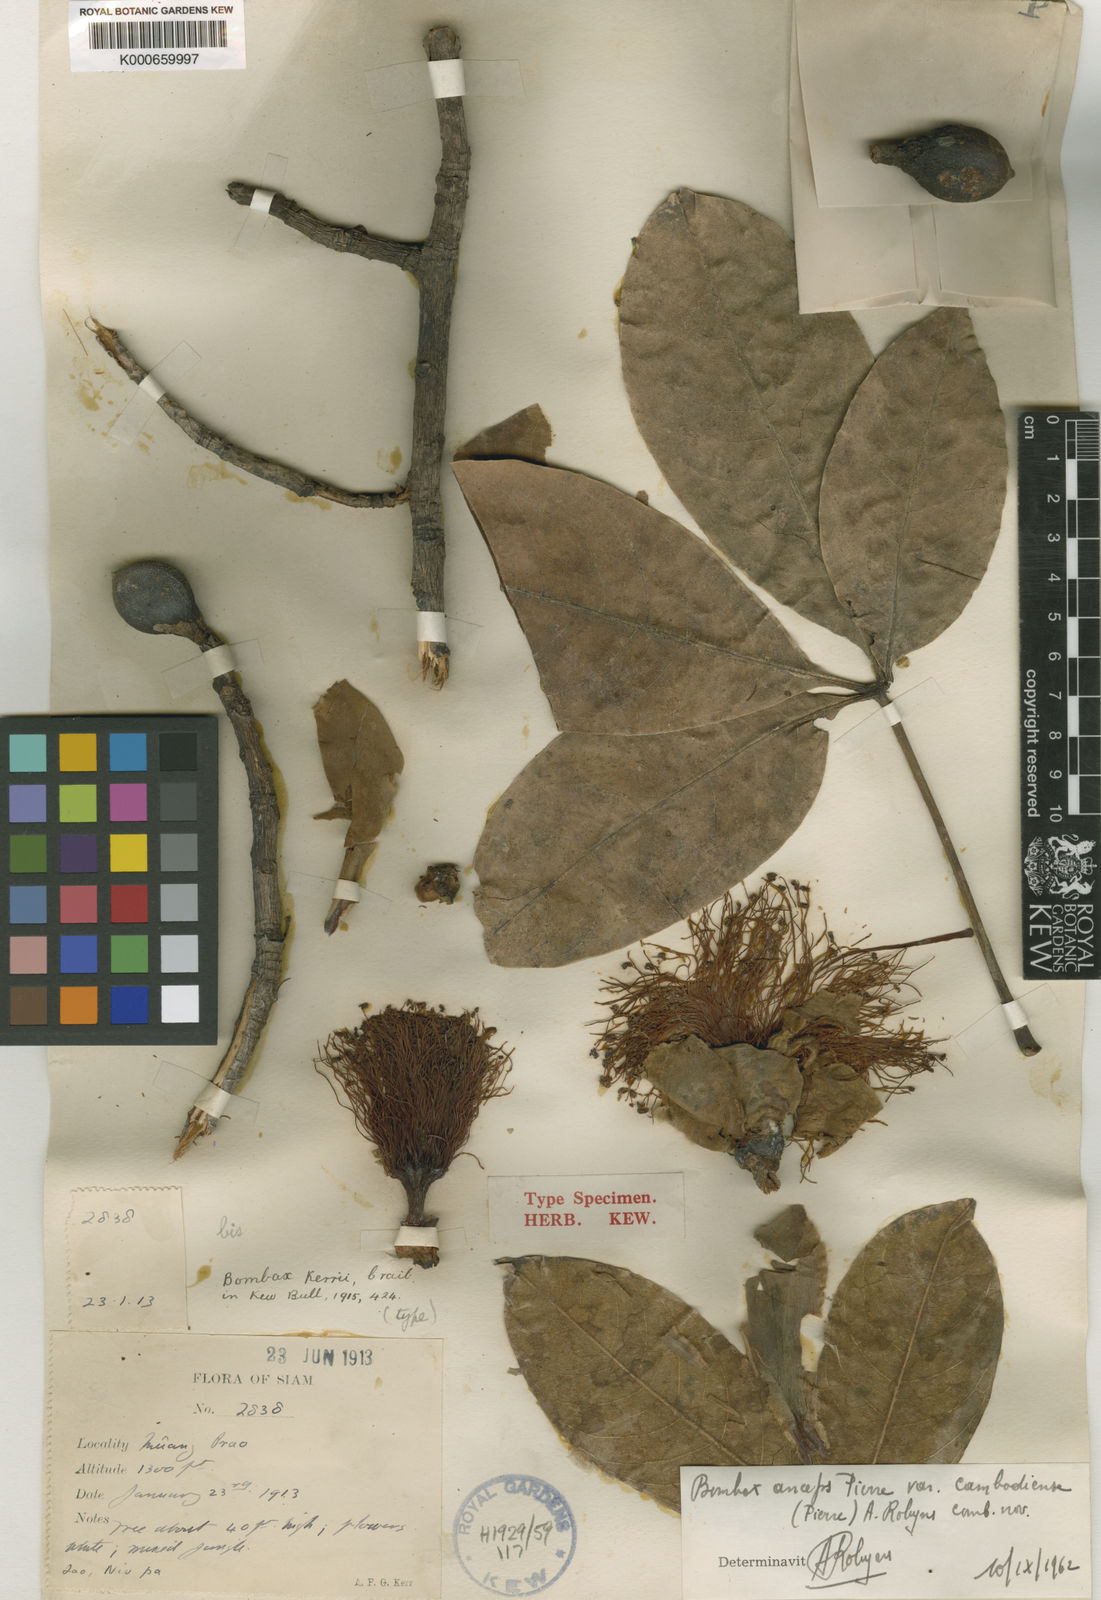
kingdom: Plantae
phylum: Tracheophyta
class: Magnoliopsida
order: Malvales
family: Malvaceae
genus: Bombax
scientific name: Bombax anceps
